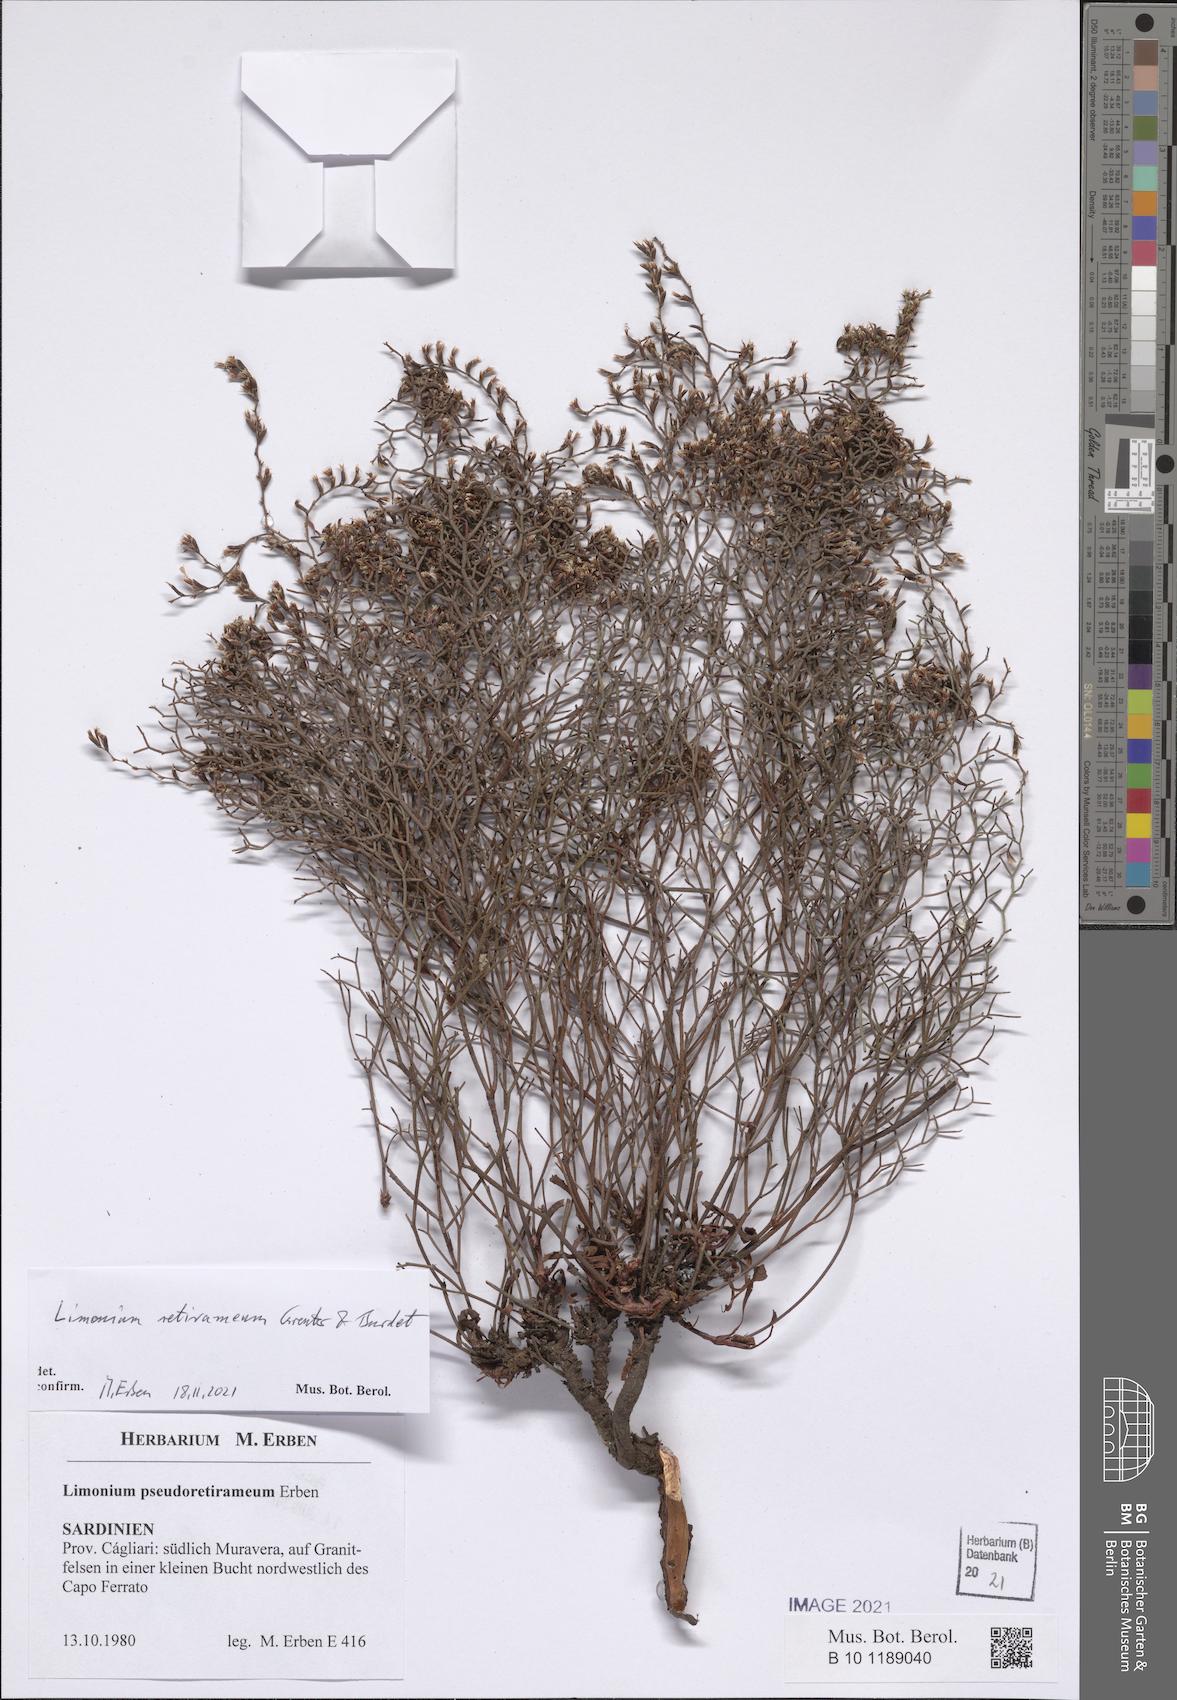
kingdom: Plantae
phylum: Tracheophyta
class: Magnoliopsida
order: Caryophyllales
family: Plumbaginaceae
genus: Limonium
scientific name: Limonium retirameum
